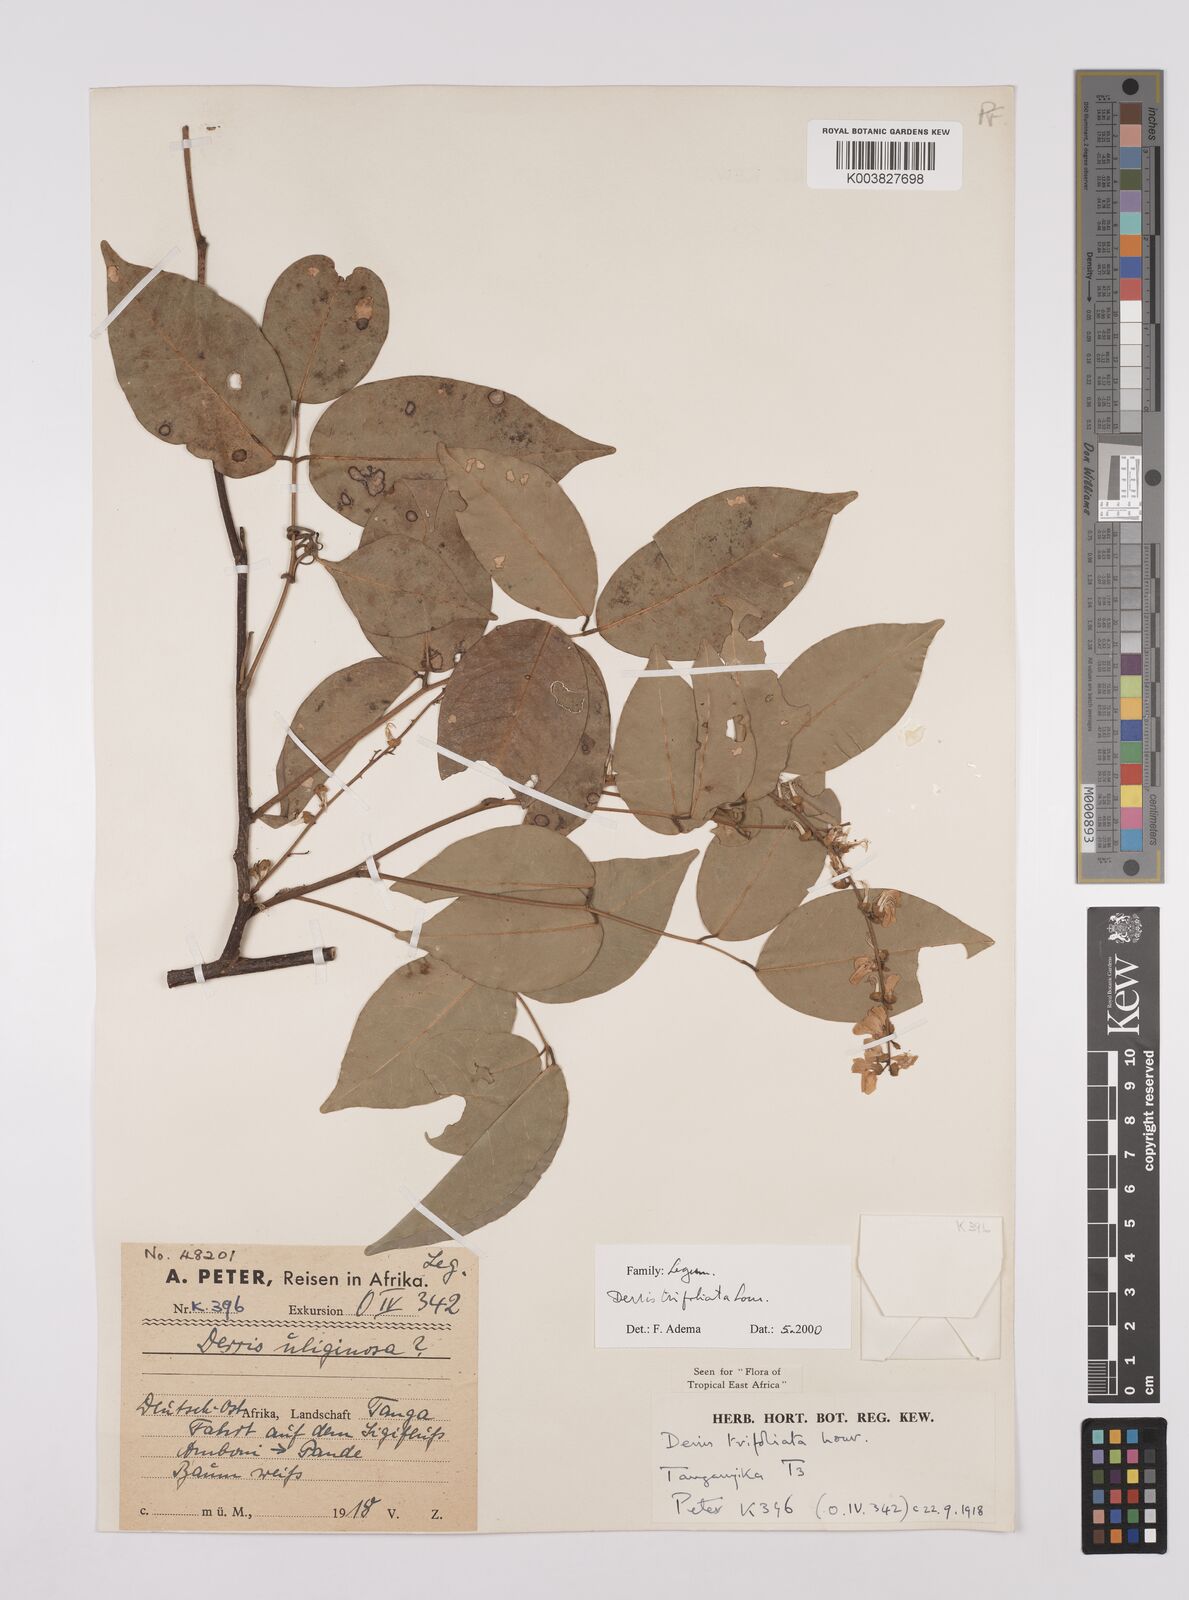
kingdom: Plantae
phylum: Tracheophyta
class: Magnoliopsida
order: Fabales
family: Fabaceae
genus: Derris
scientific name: Derris trifoliata
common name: Three-leaf derris
